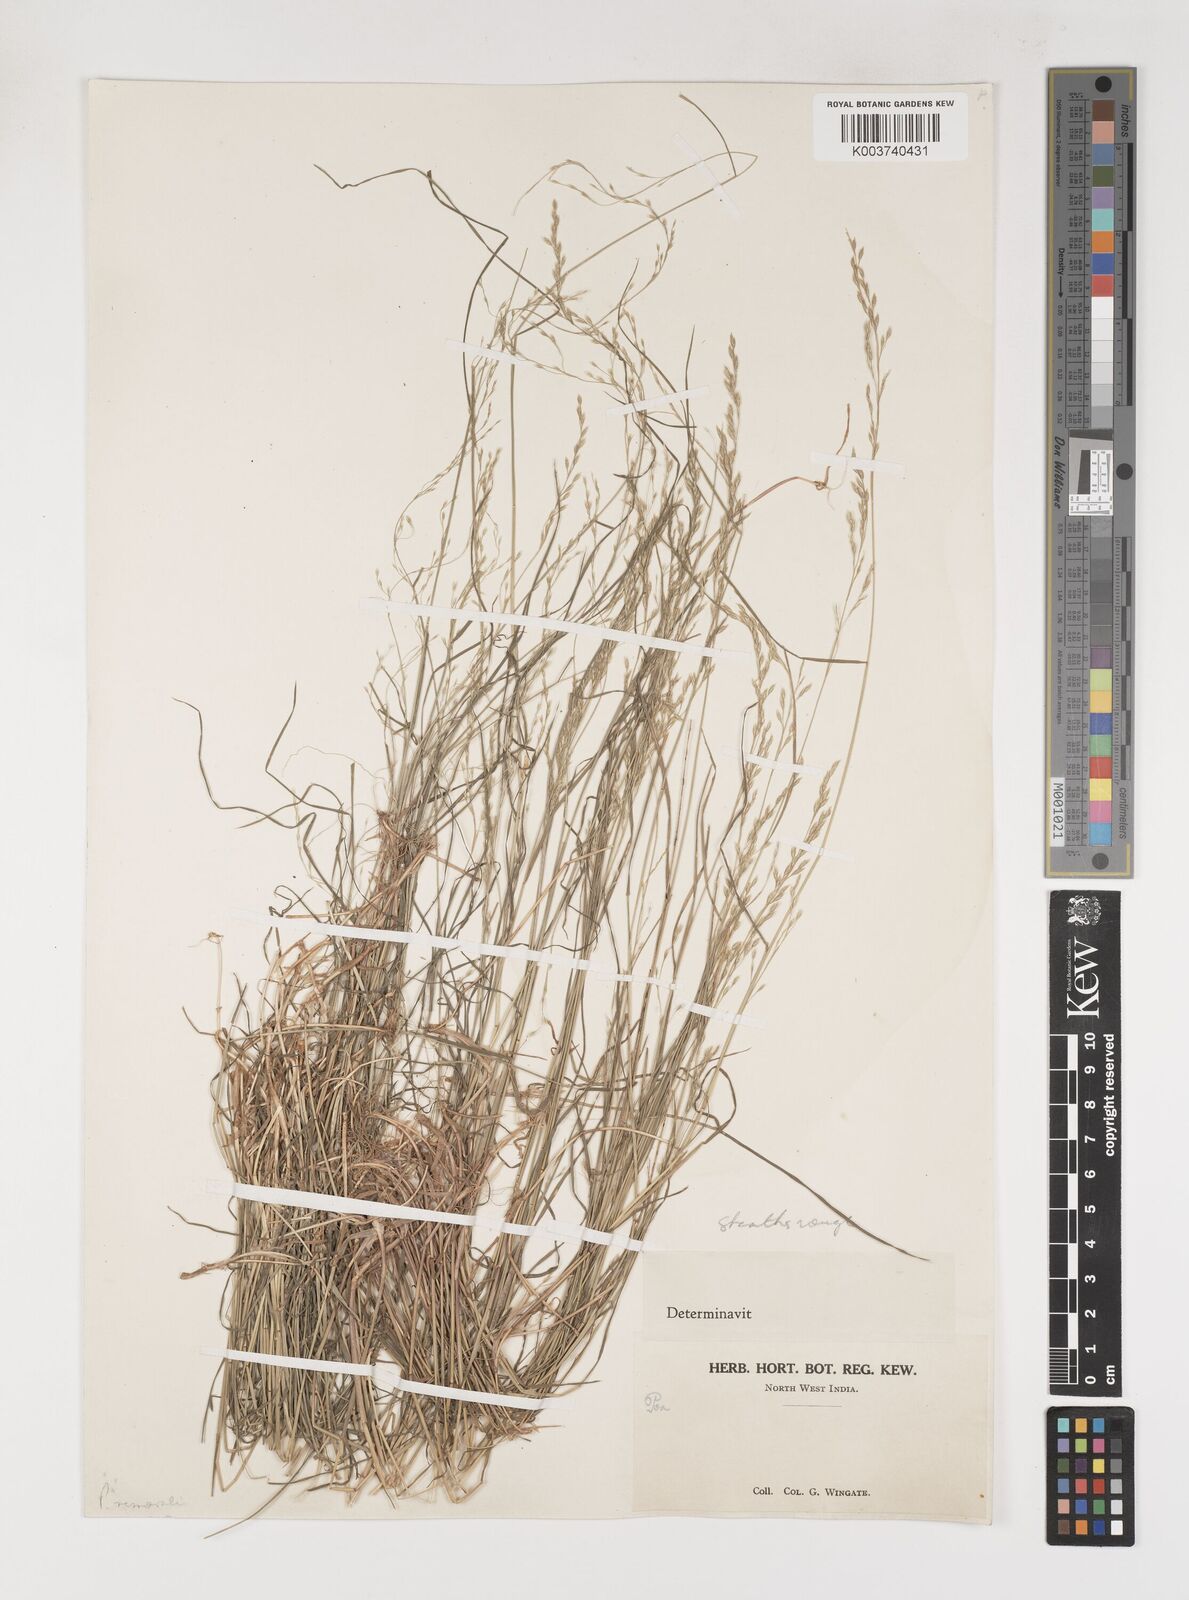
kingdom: Plantae
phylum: Tracheophyta
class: Liliopsida
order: Poales
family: Poaceae
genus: Poa
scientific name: Poa nemoralis
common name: Wood bluegrass
